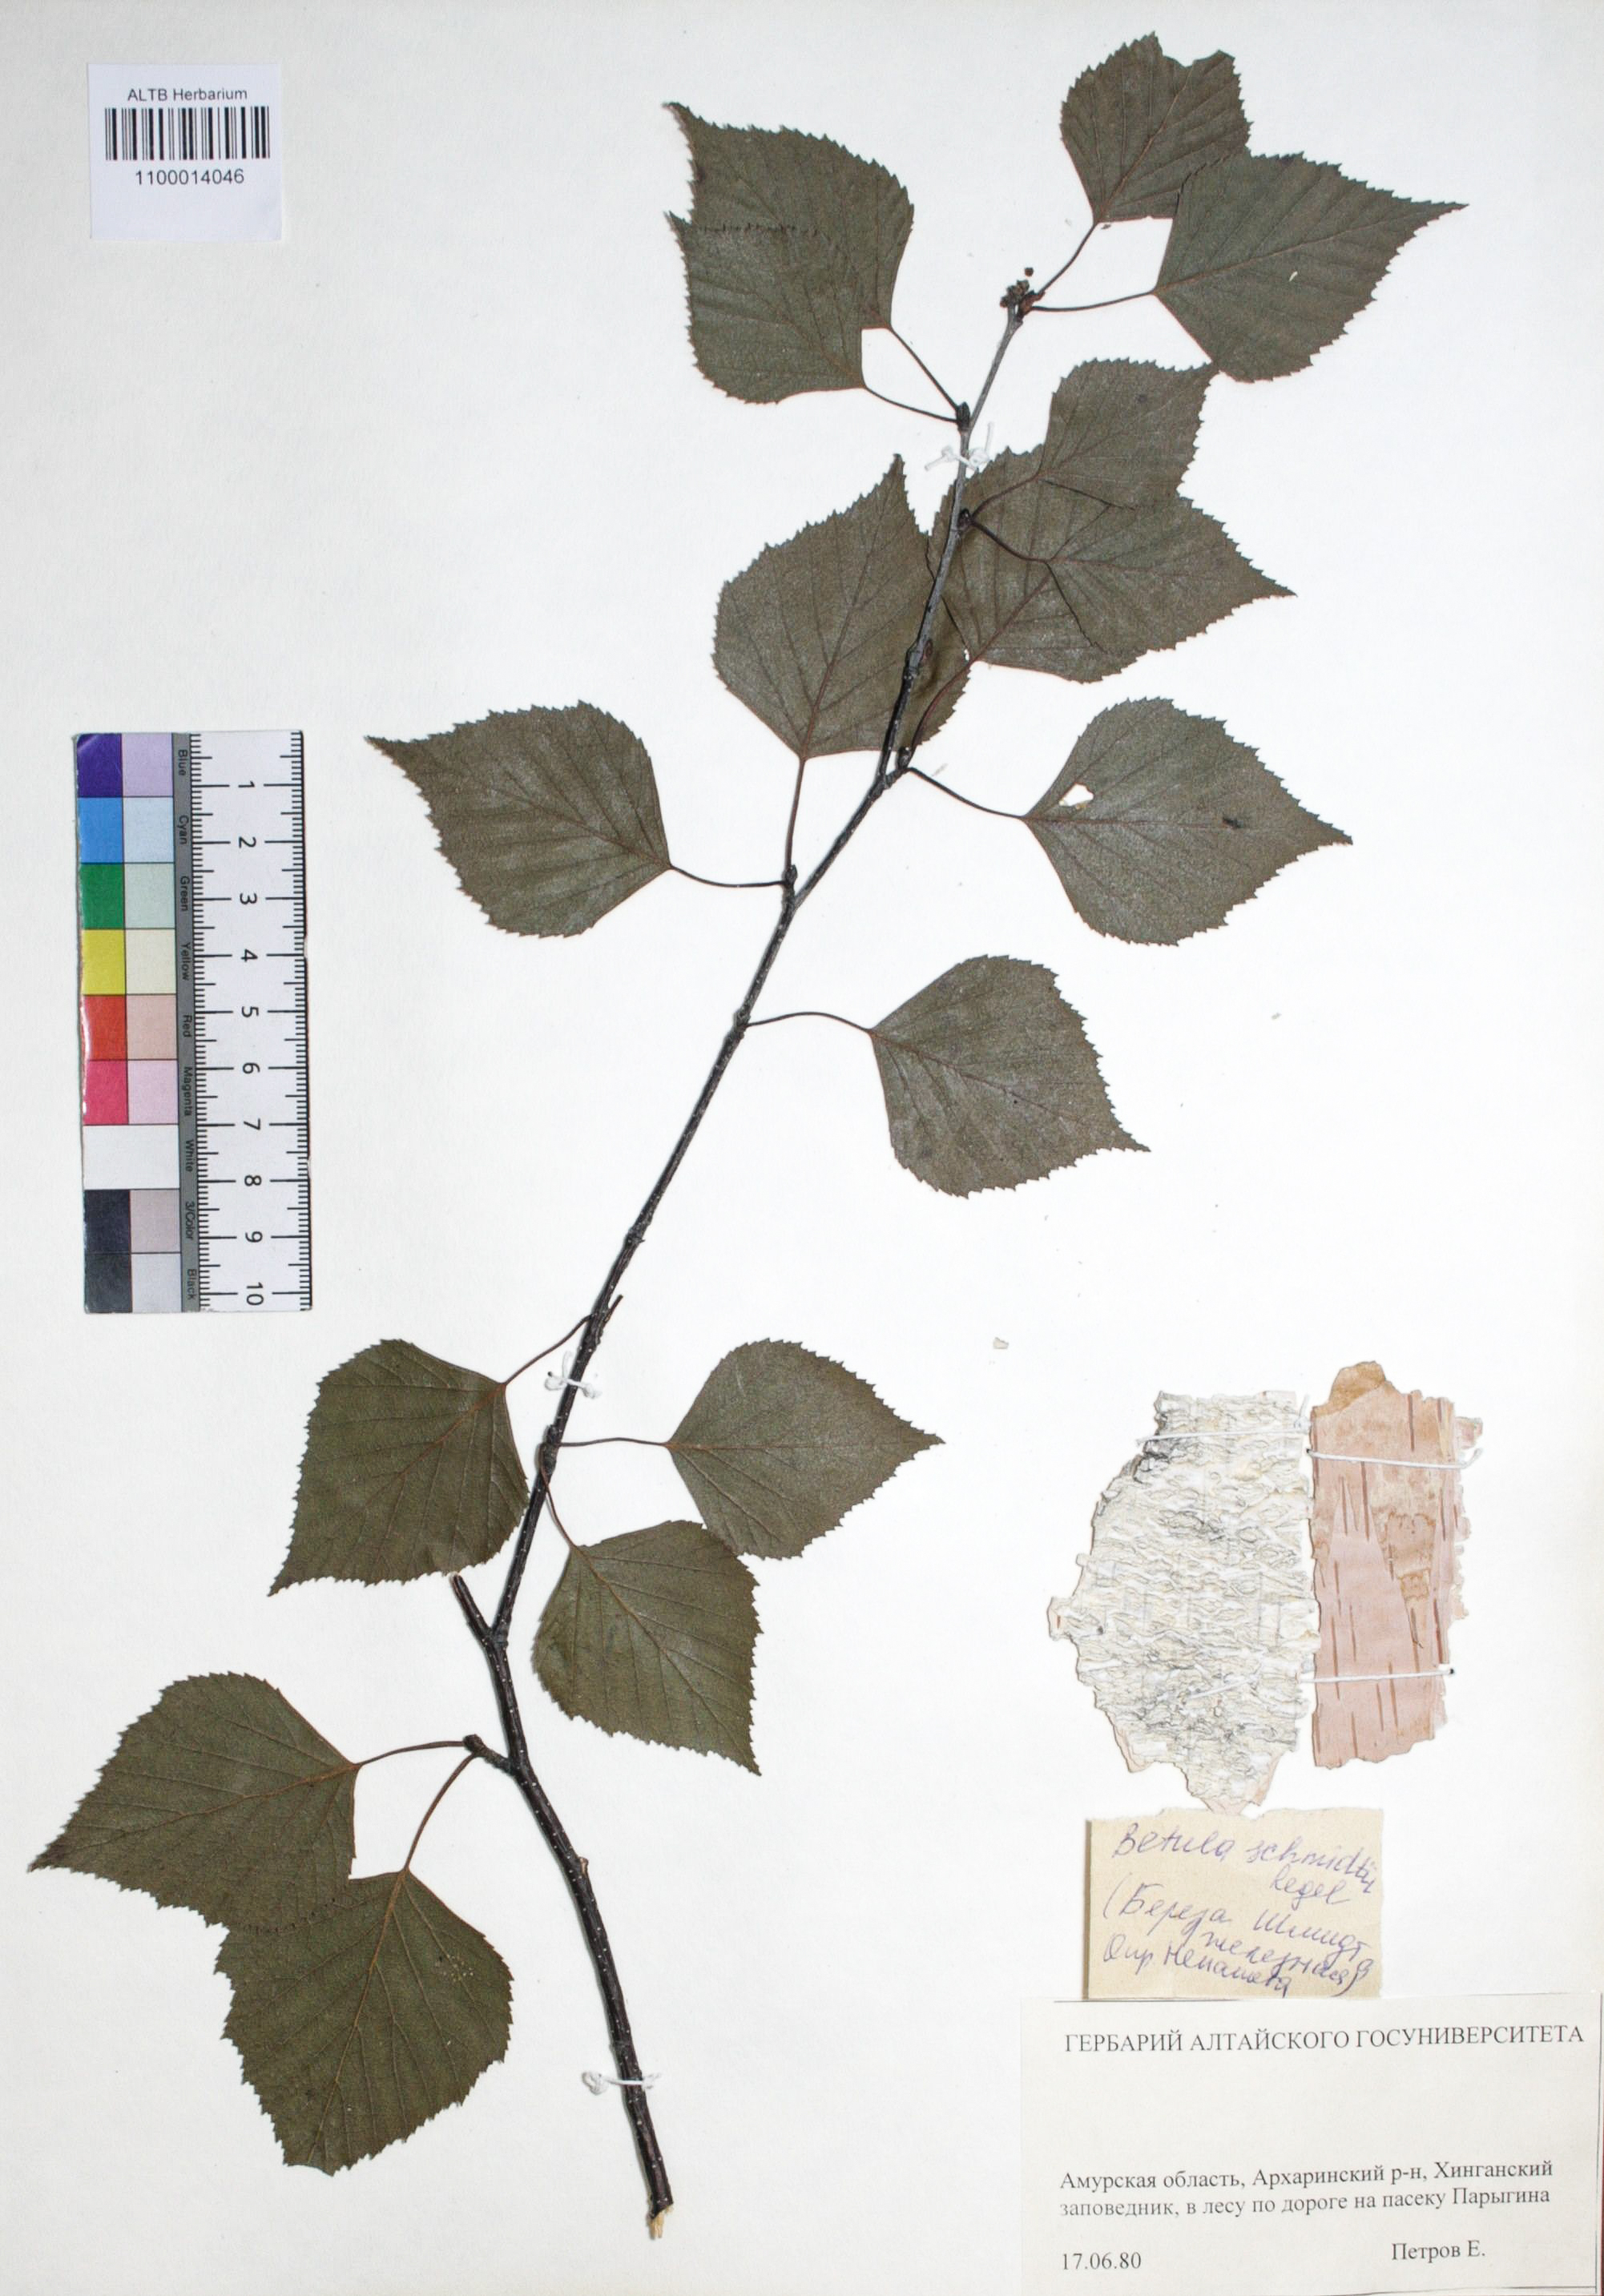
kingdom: Plantae
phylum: Tracheophyta
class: Magnoliopsida
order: Fagales
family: Betulaceae
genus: Betula
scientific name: Betula schmidtii
